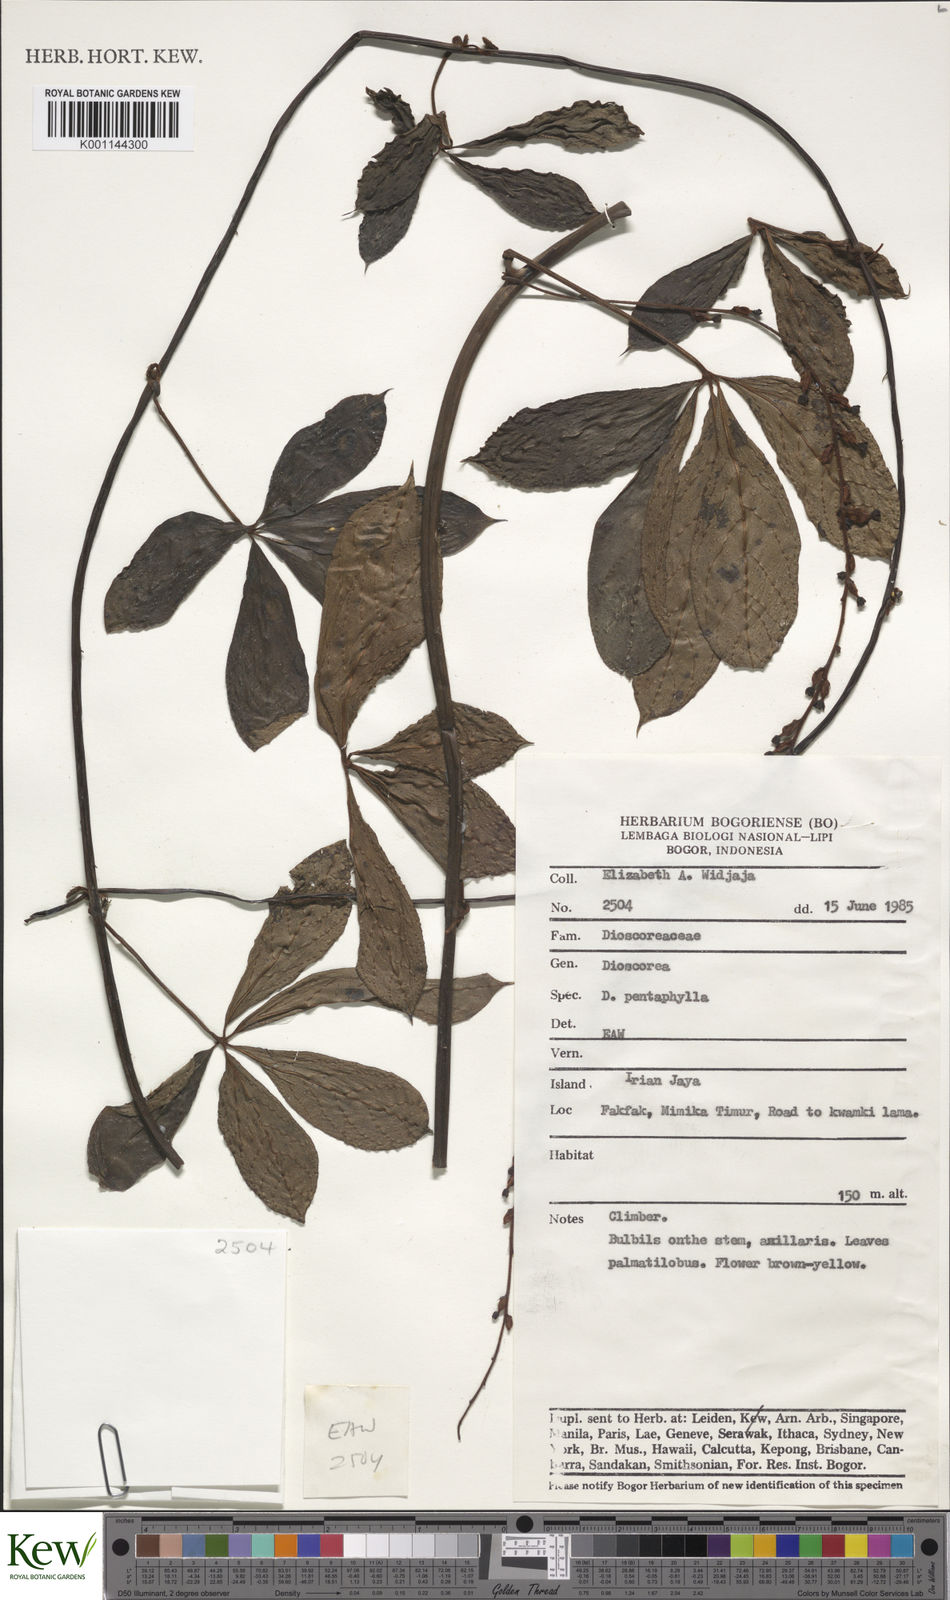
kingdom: Plantae
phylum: Tracheophyta
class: Liliopsida
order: Dioscoreales
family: Dioscoreaceae
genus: Dioscorea
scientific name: Dioscorea pentaphylla
